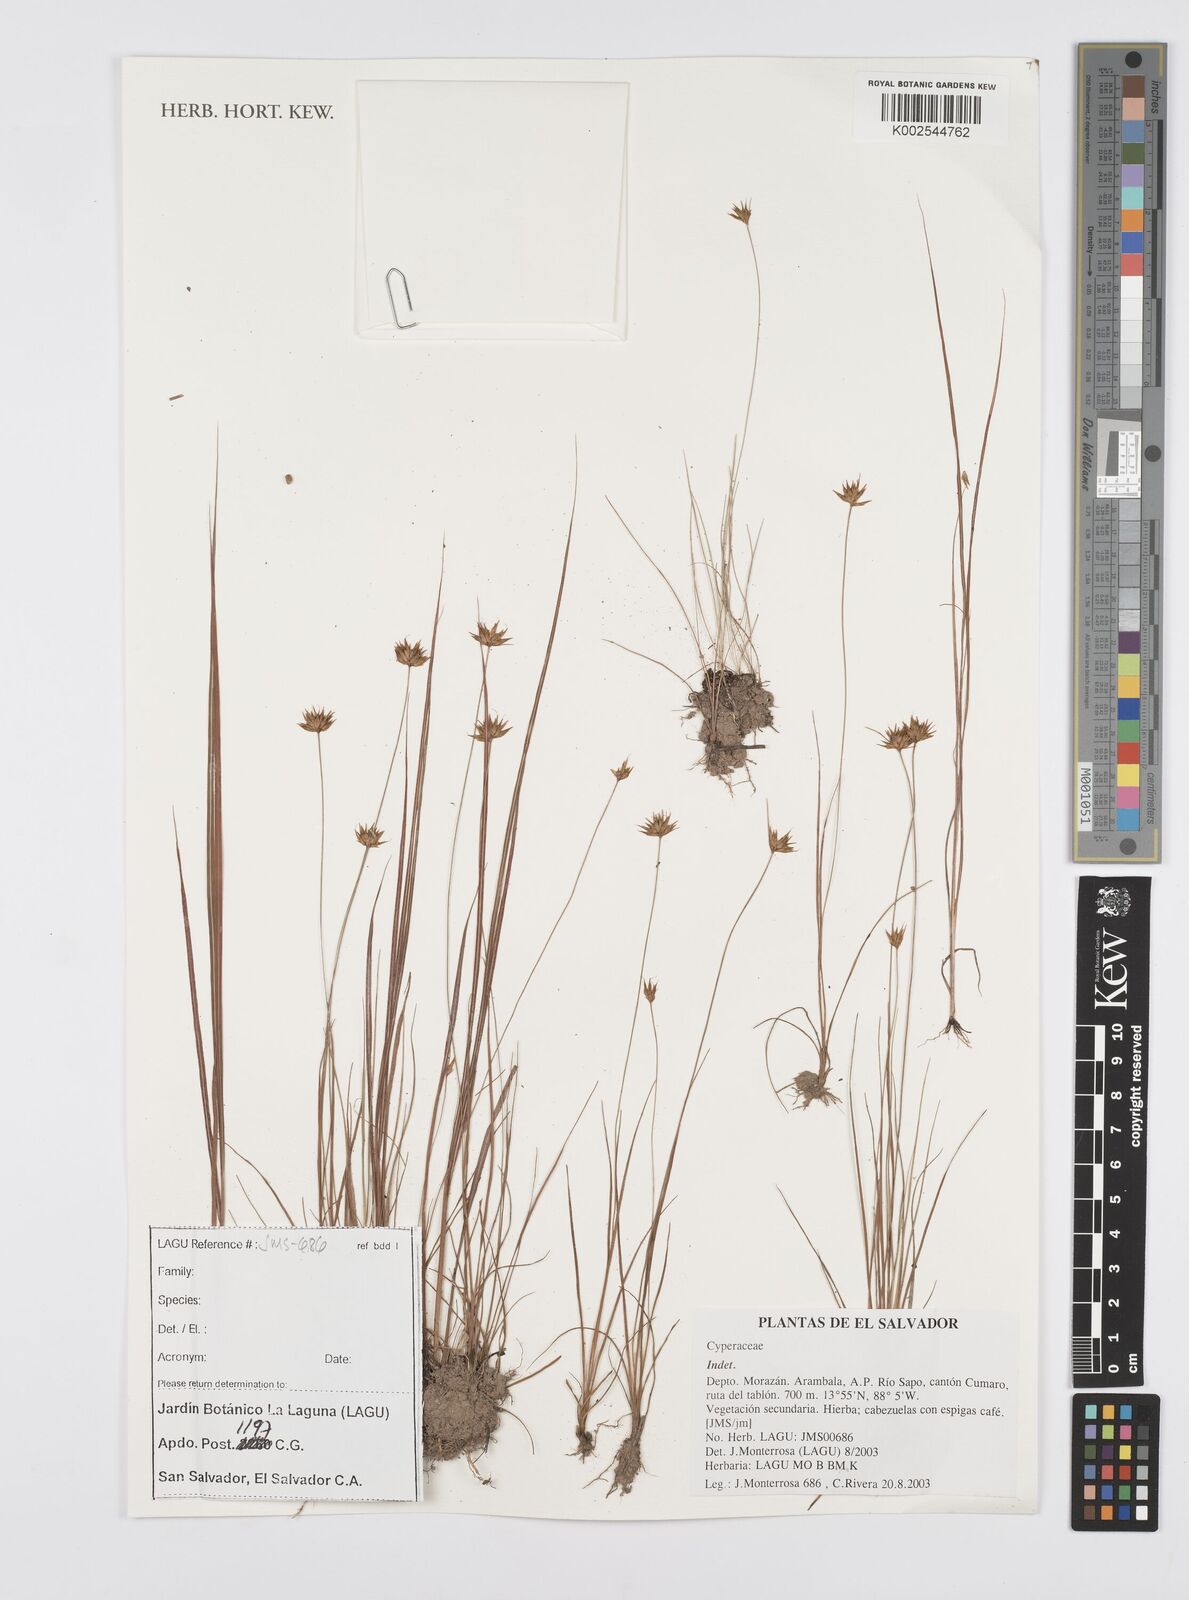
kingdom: Plantae
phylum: Tracheophyta
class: Liliopsida
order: Poales
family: Cyperaceae
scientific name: Cyperaceae
